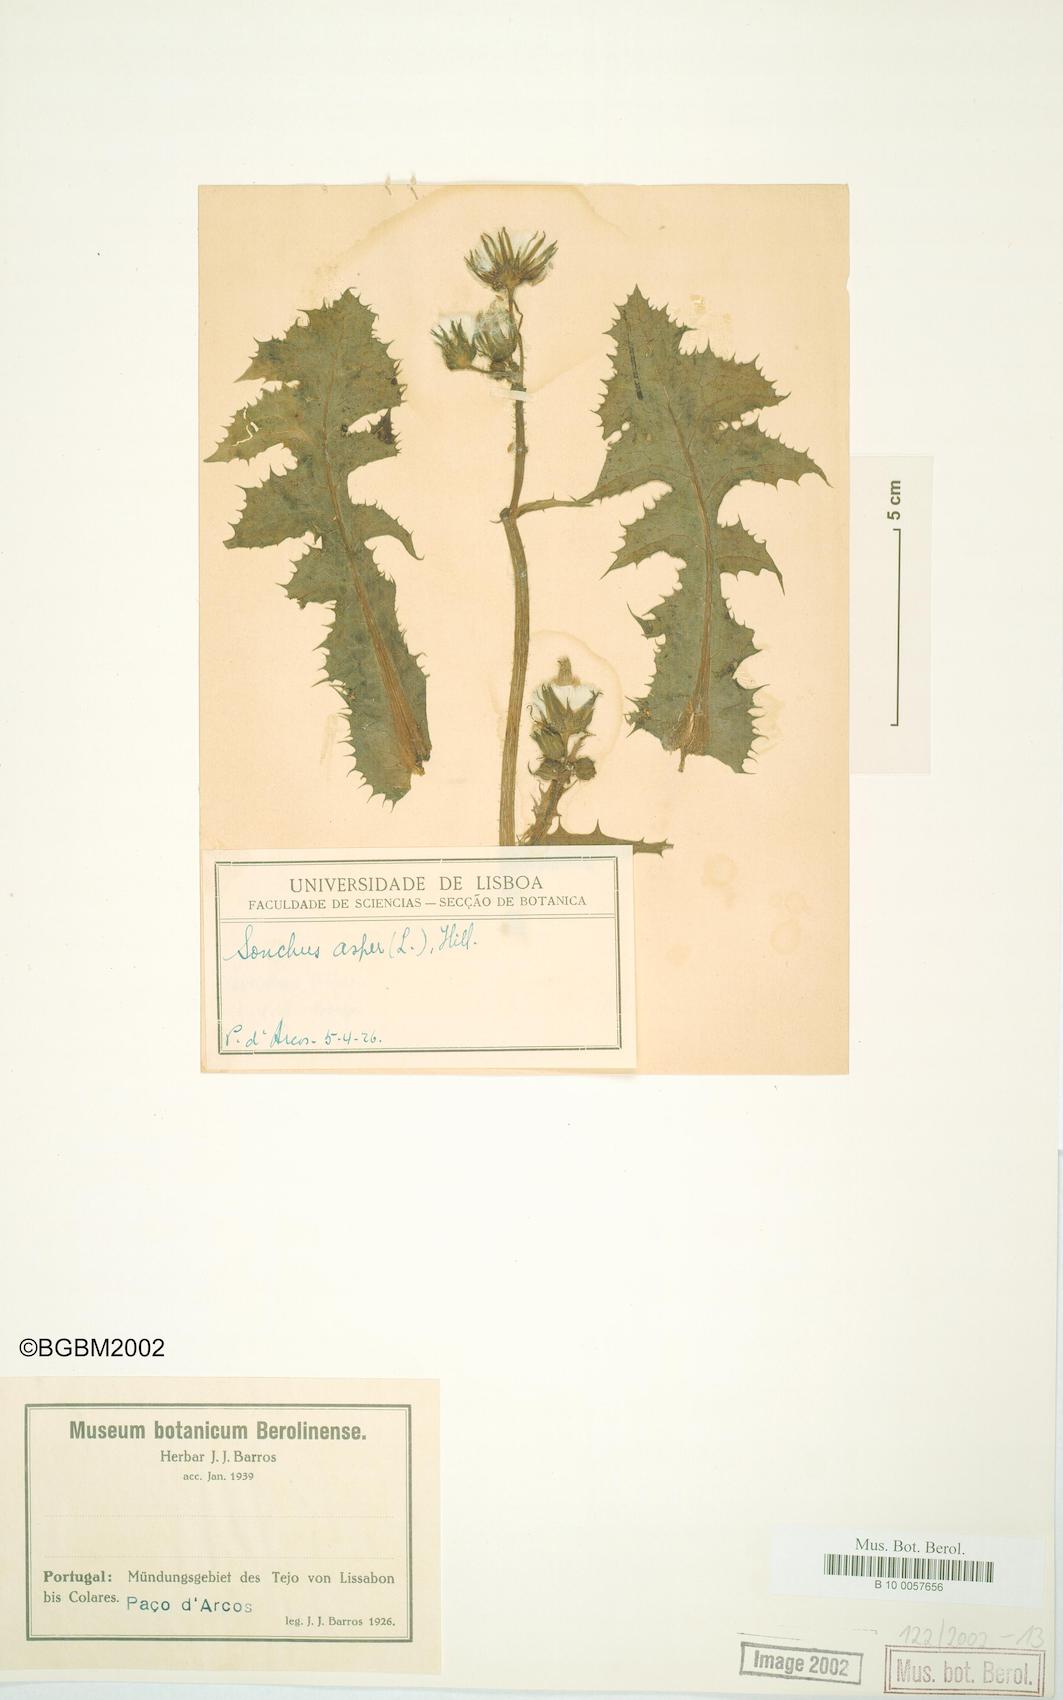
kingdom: Plantae
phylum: Tracheophyta
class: Magnoliopsida
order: Asterales
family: Asteraceae
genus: Sonchus
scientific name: Sonchus asper
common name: Prickly sow-thistle
